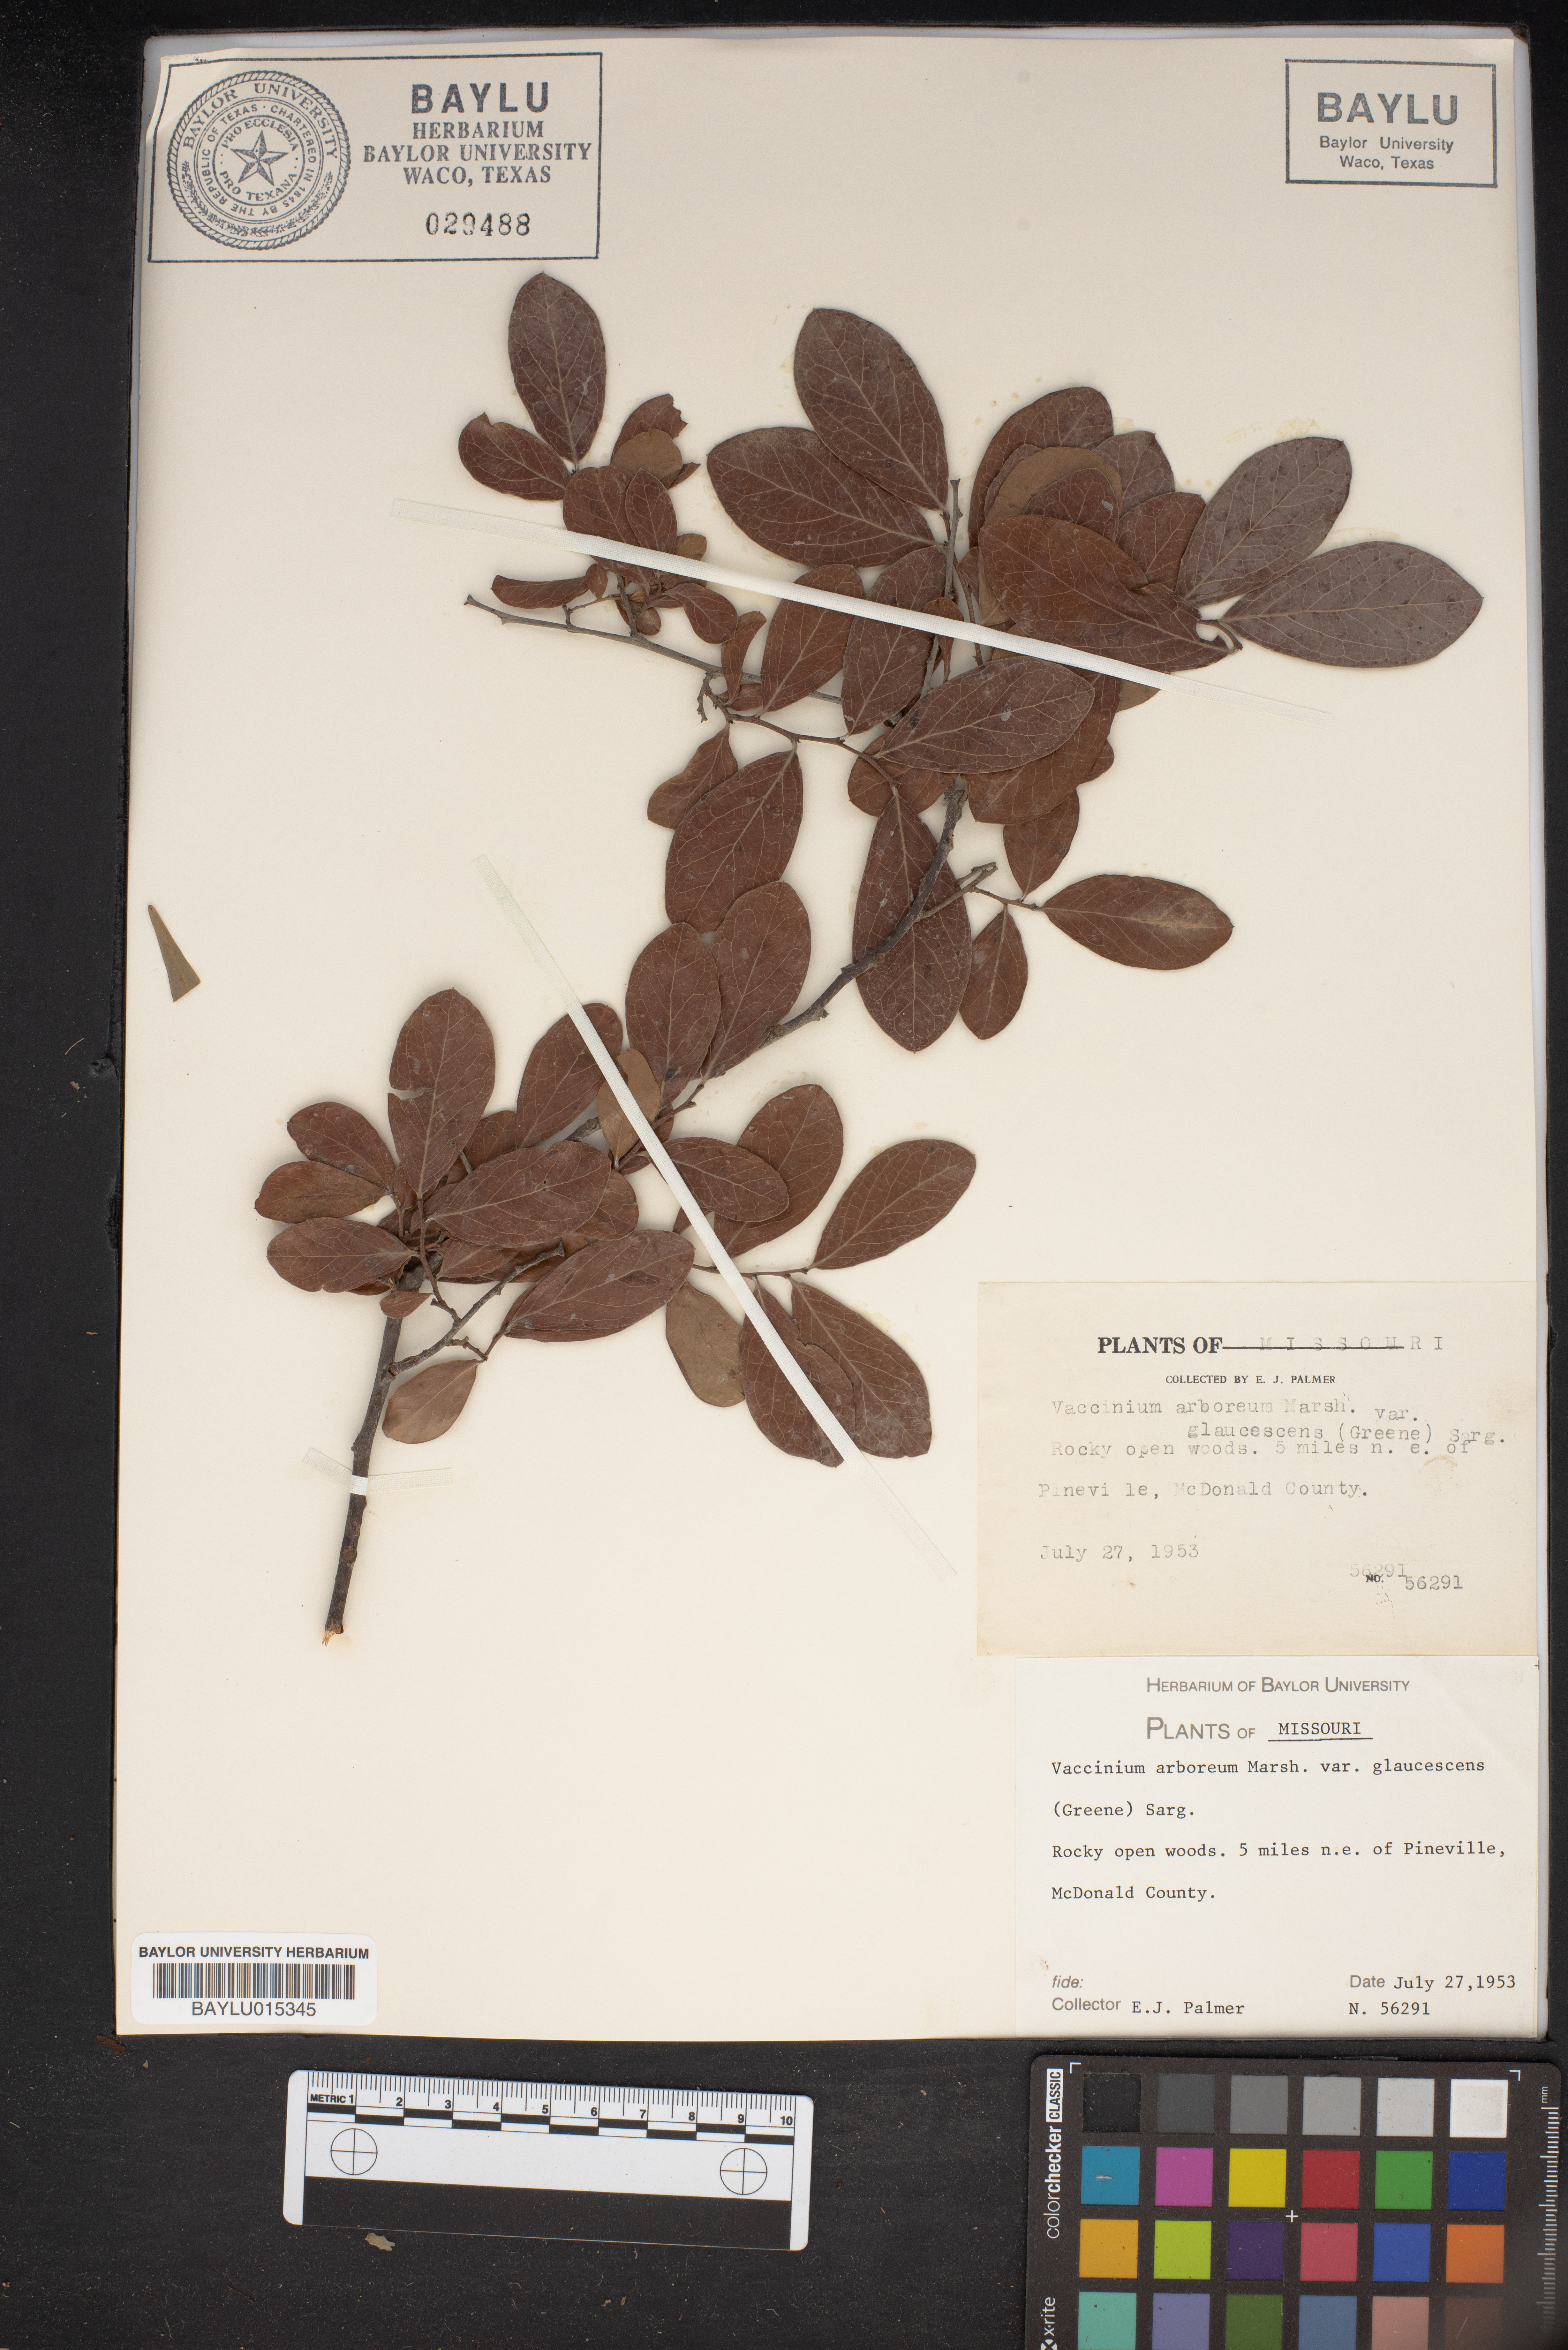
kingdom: Plantae
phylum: Tracheophyta
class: Magnoliopsida
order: Ericales
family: Ericaceae
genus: Vaccinium
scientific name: Vaccinium arboreum
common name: Farkleberry
